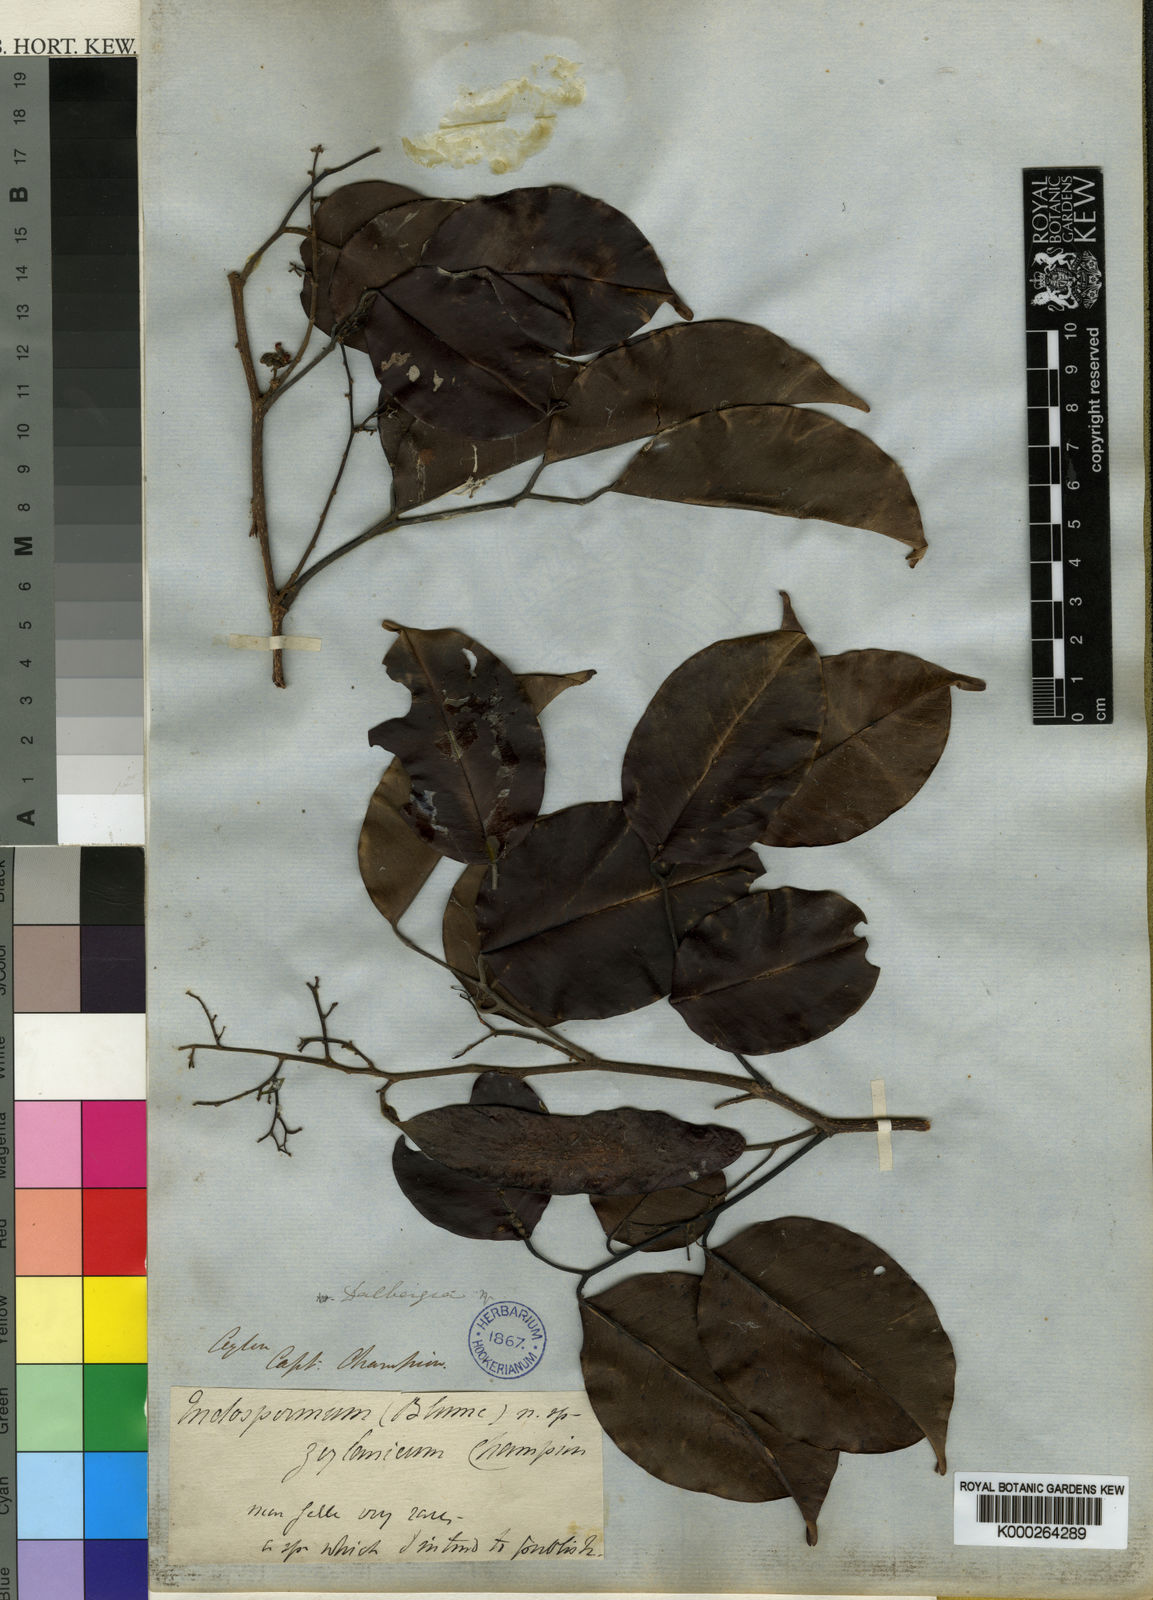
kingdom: Plantae
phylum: Tracheophyta
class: Magnoliopsida
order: Fabales
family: Fabaceae
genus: Dalbergia
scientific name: Dalbergia rostrata
